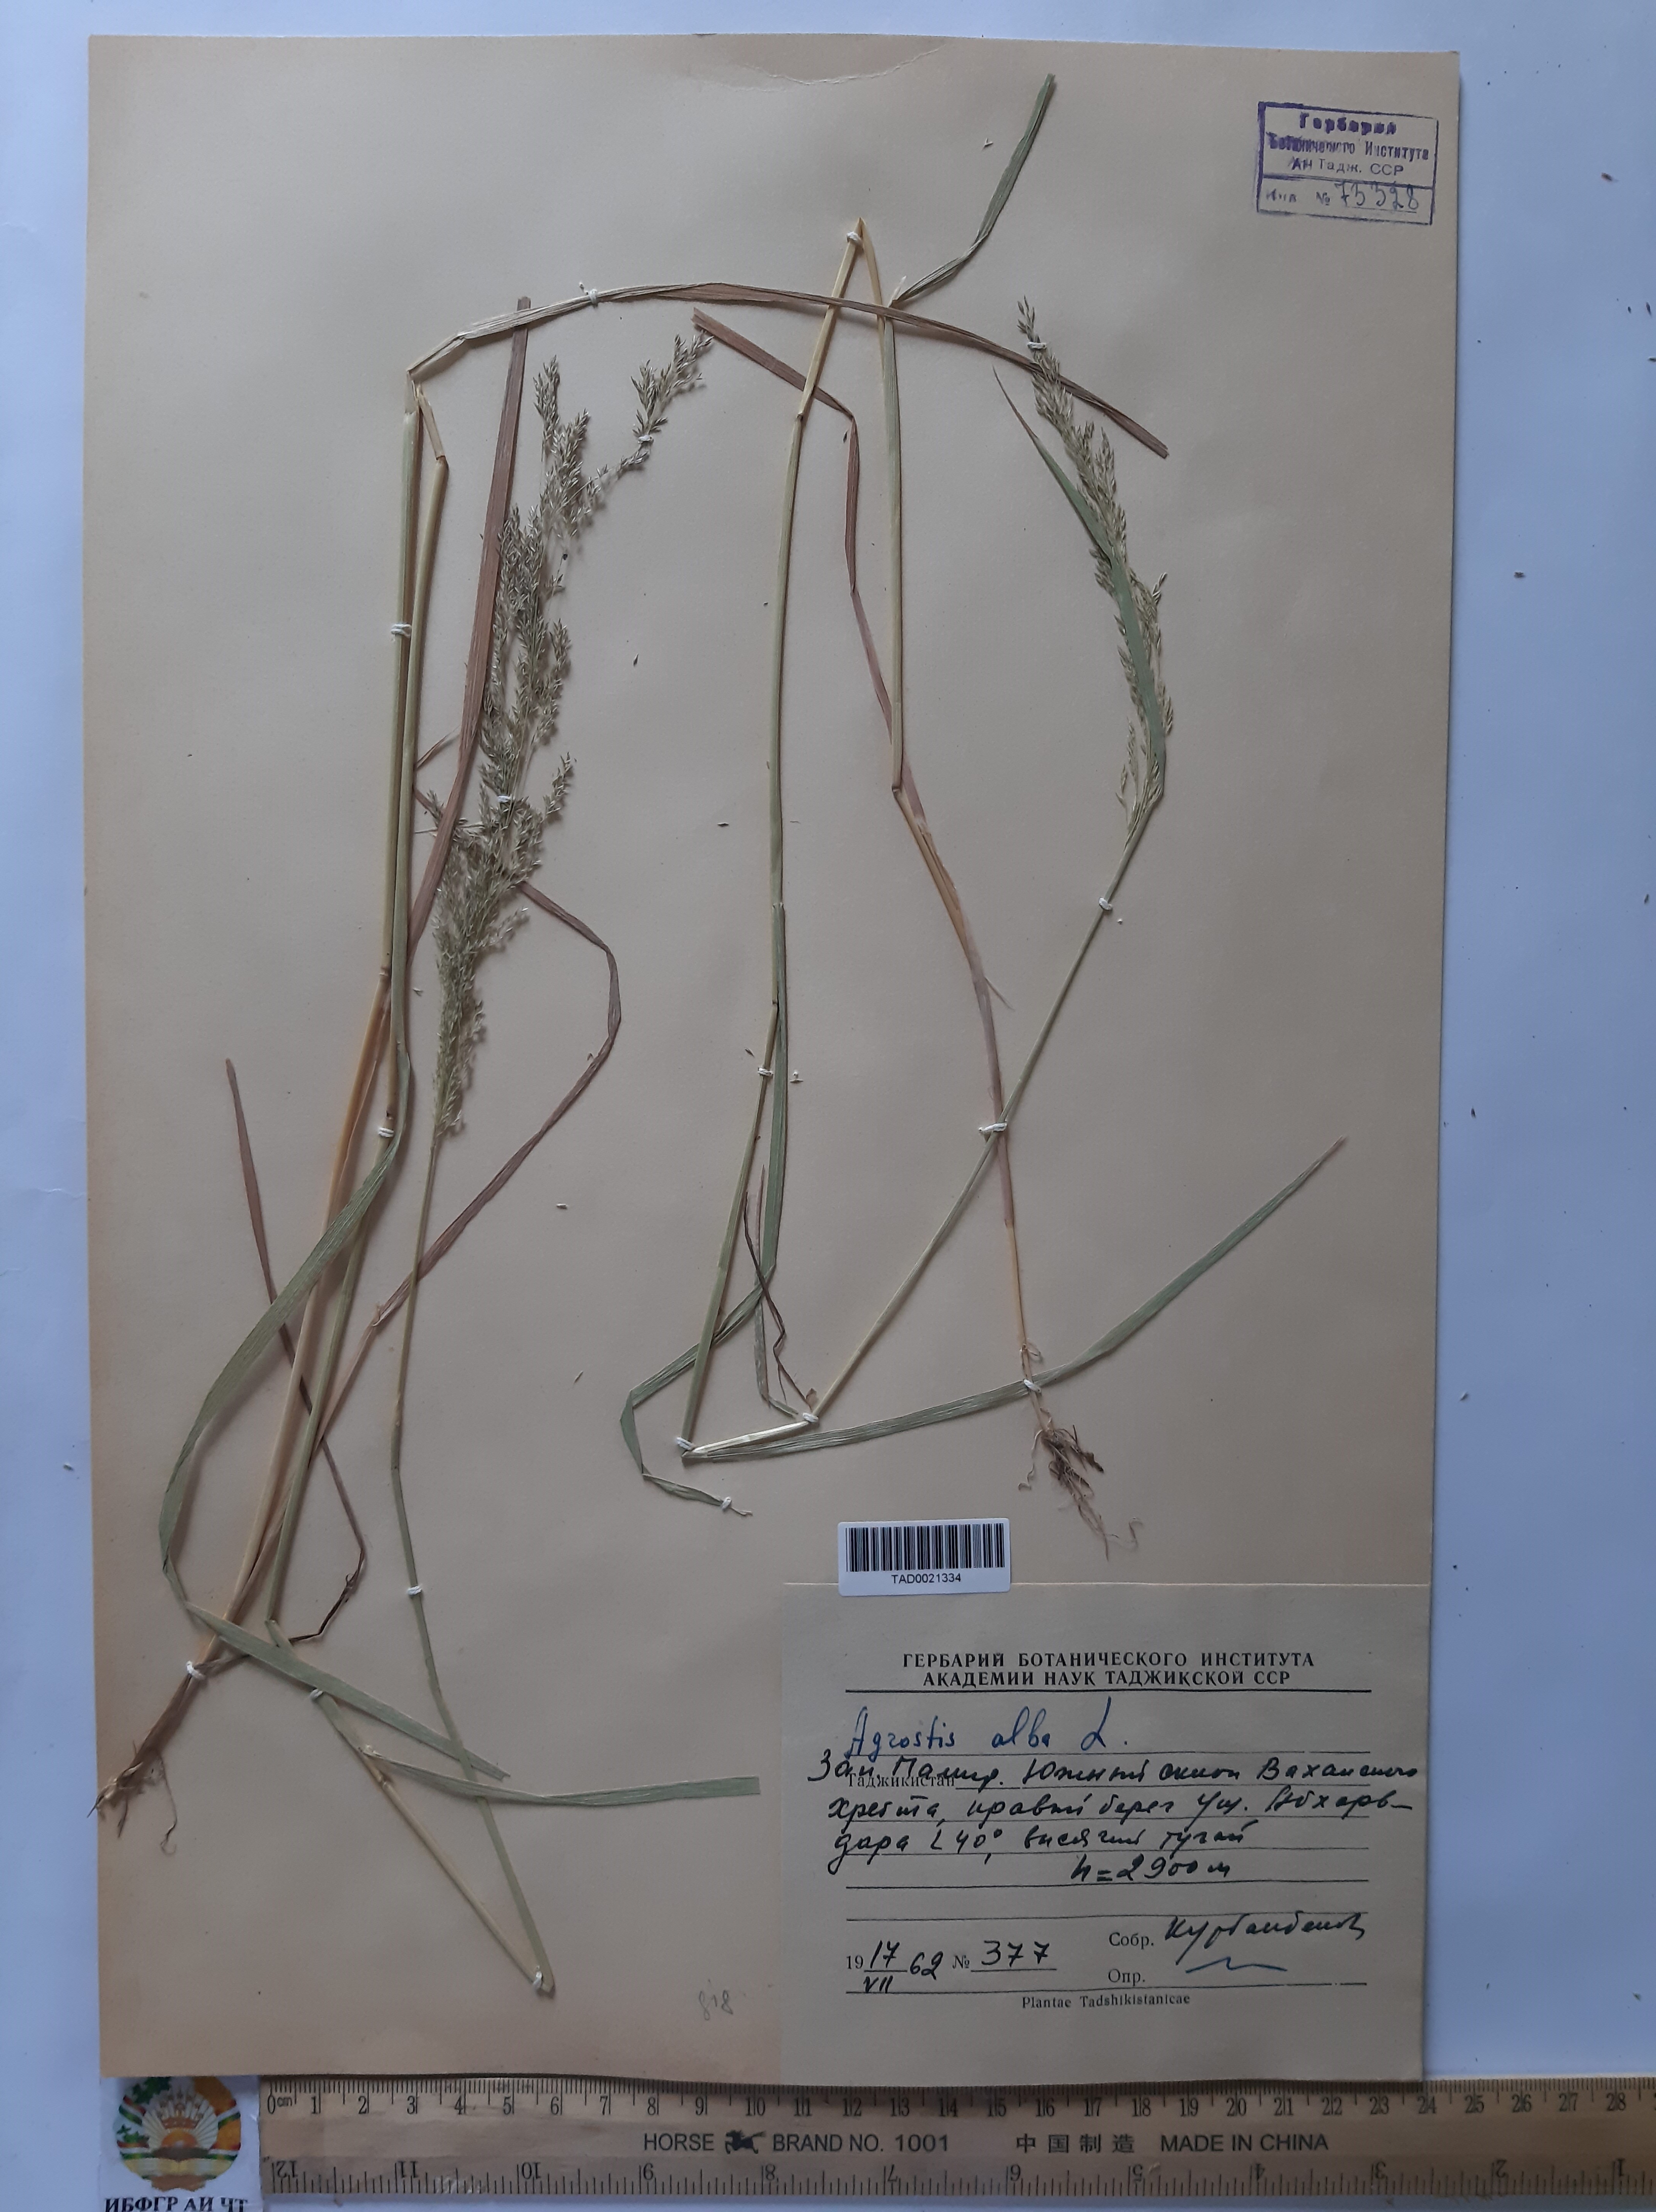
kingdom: Plantae
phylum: Tracheophyta
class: Liliopsida
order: Poales
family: Poaceae
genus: Poa
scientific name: Poa nemoralis
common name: Wood bluegrass
